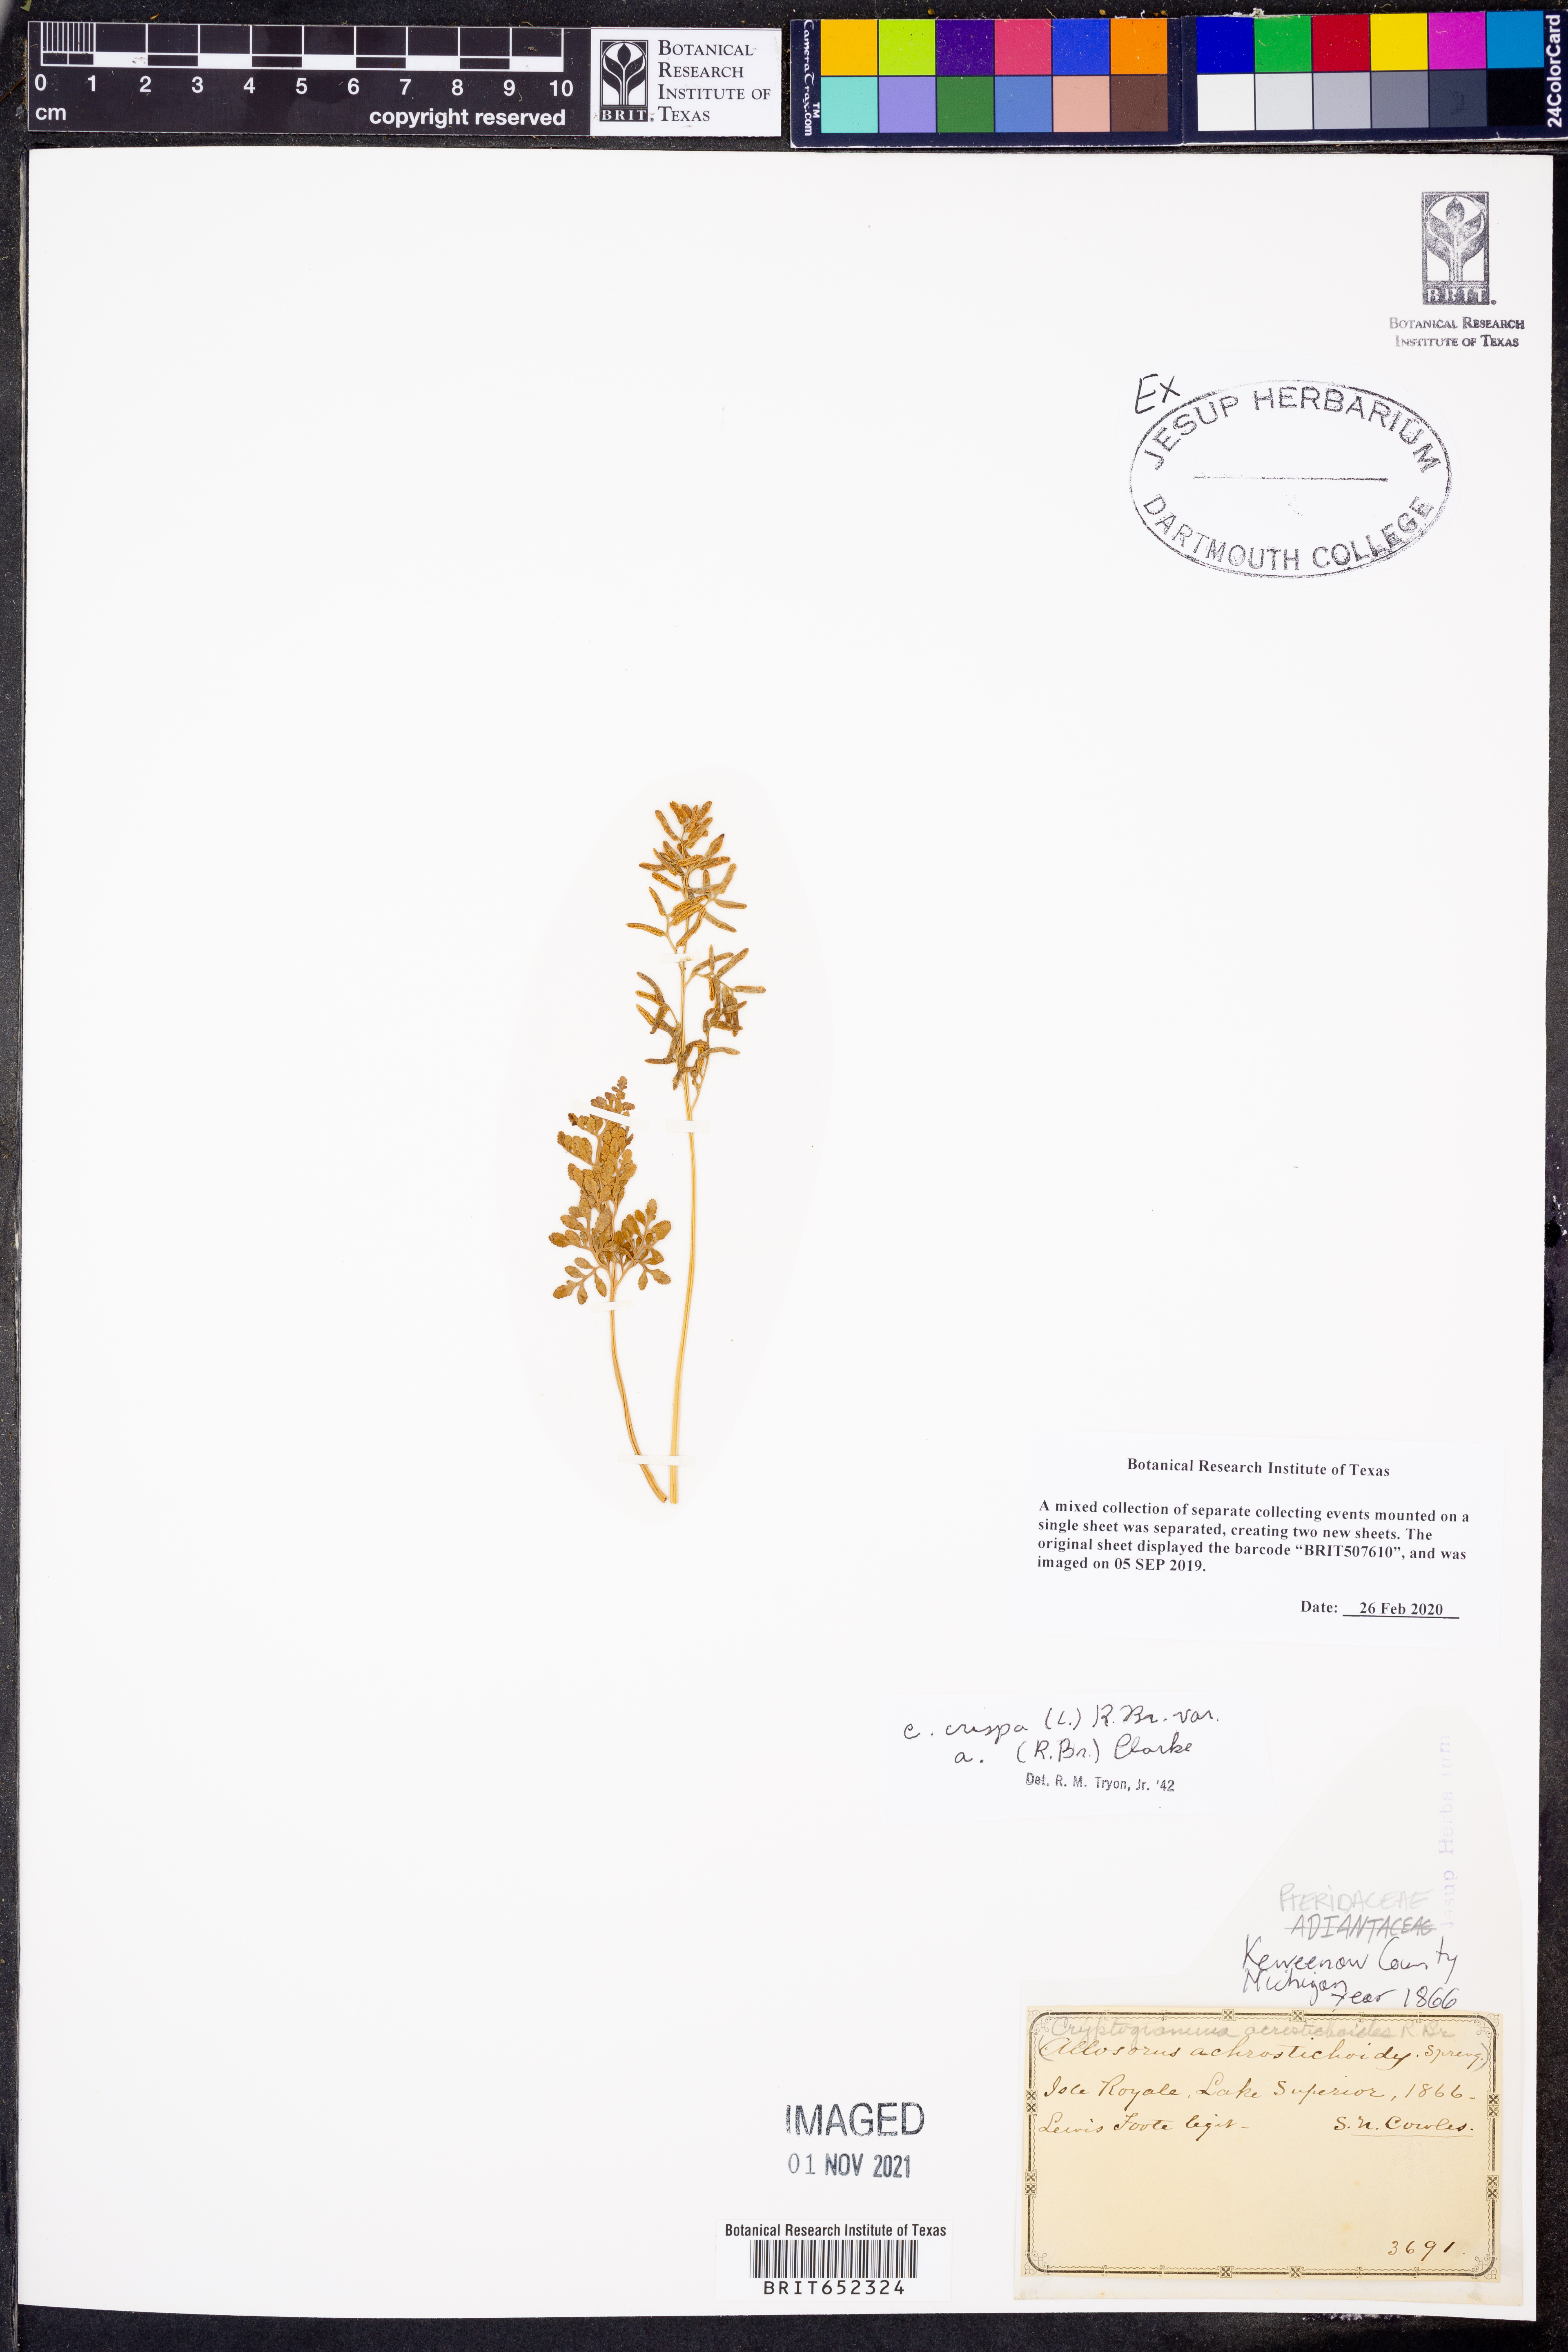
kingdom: Plantae
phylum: Tracheophyta
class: Polypodiopsida
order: Polypodiales
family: Pteridaceae
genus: Cryptogramma
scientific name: Cryptogramma acrostichoides
